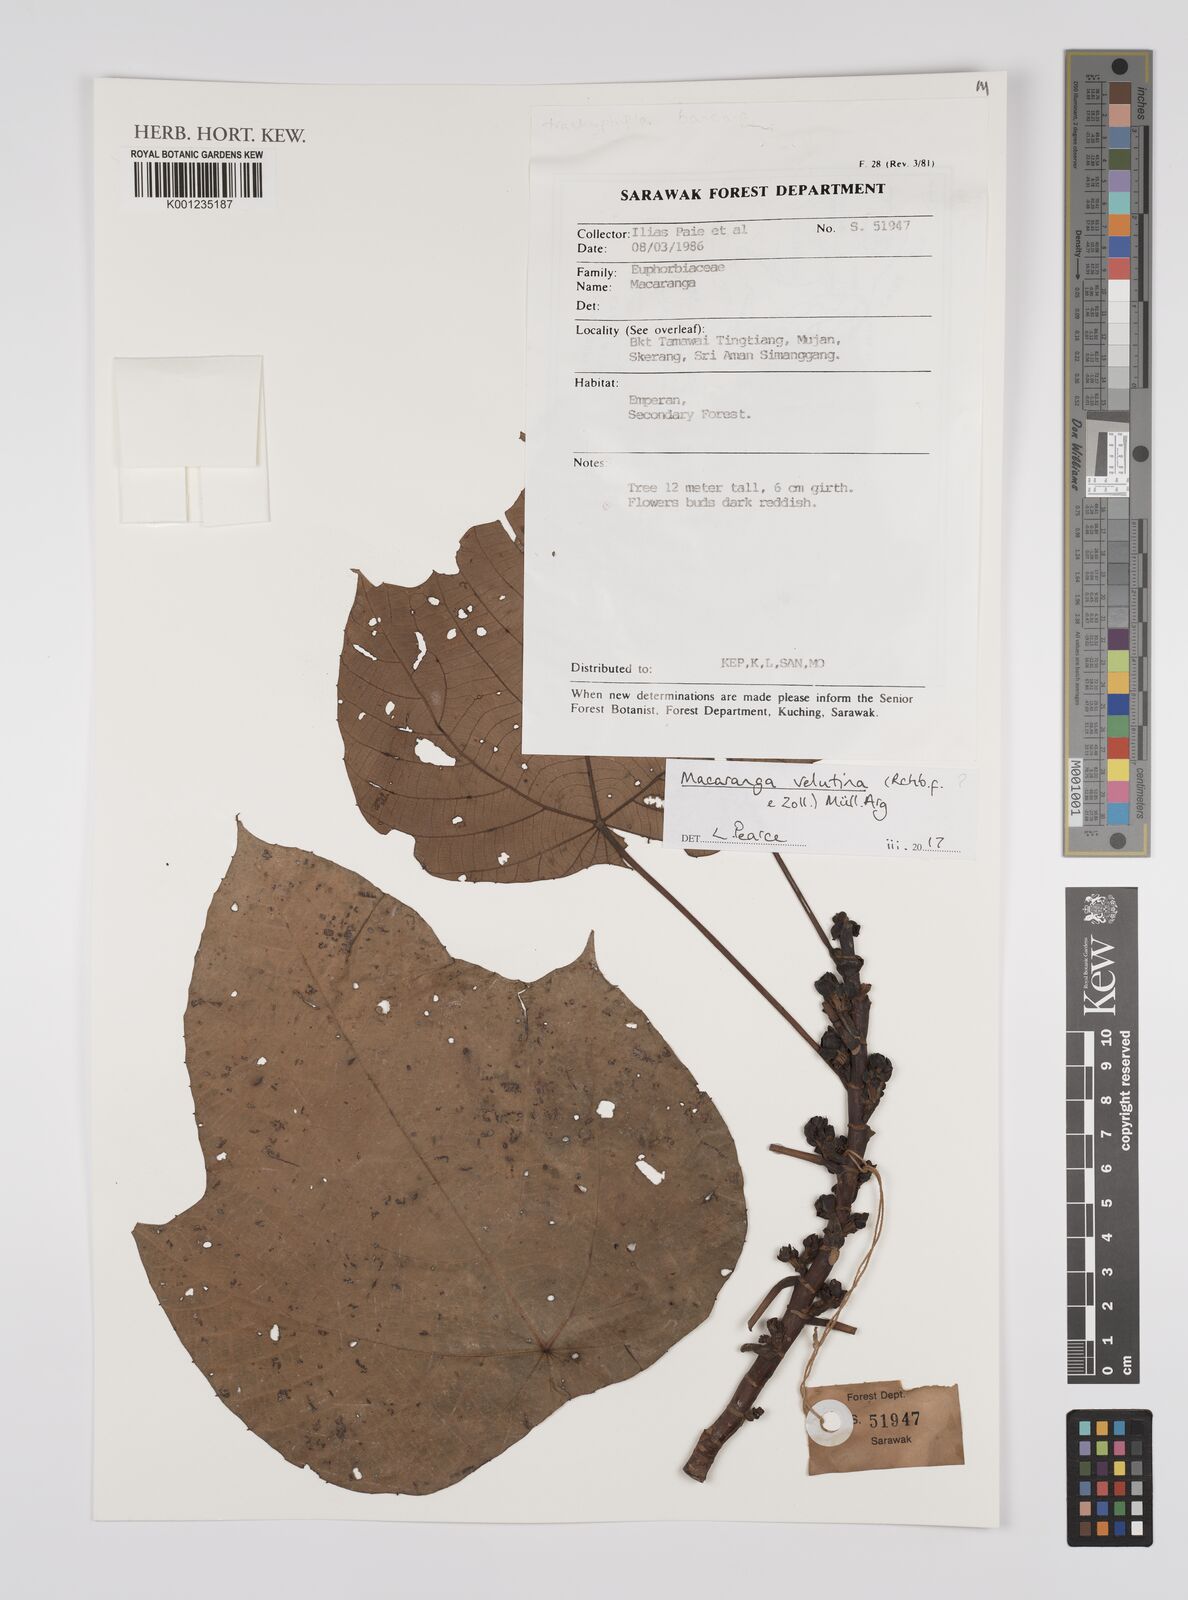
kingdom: Plantae
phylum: Tracheophyta
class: Magnoliopsida
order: Malpighiales
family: Euphorbiaceae
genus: Euphorbia
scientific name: Euphorbia
